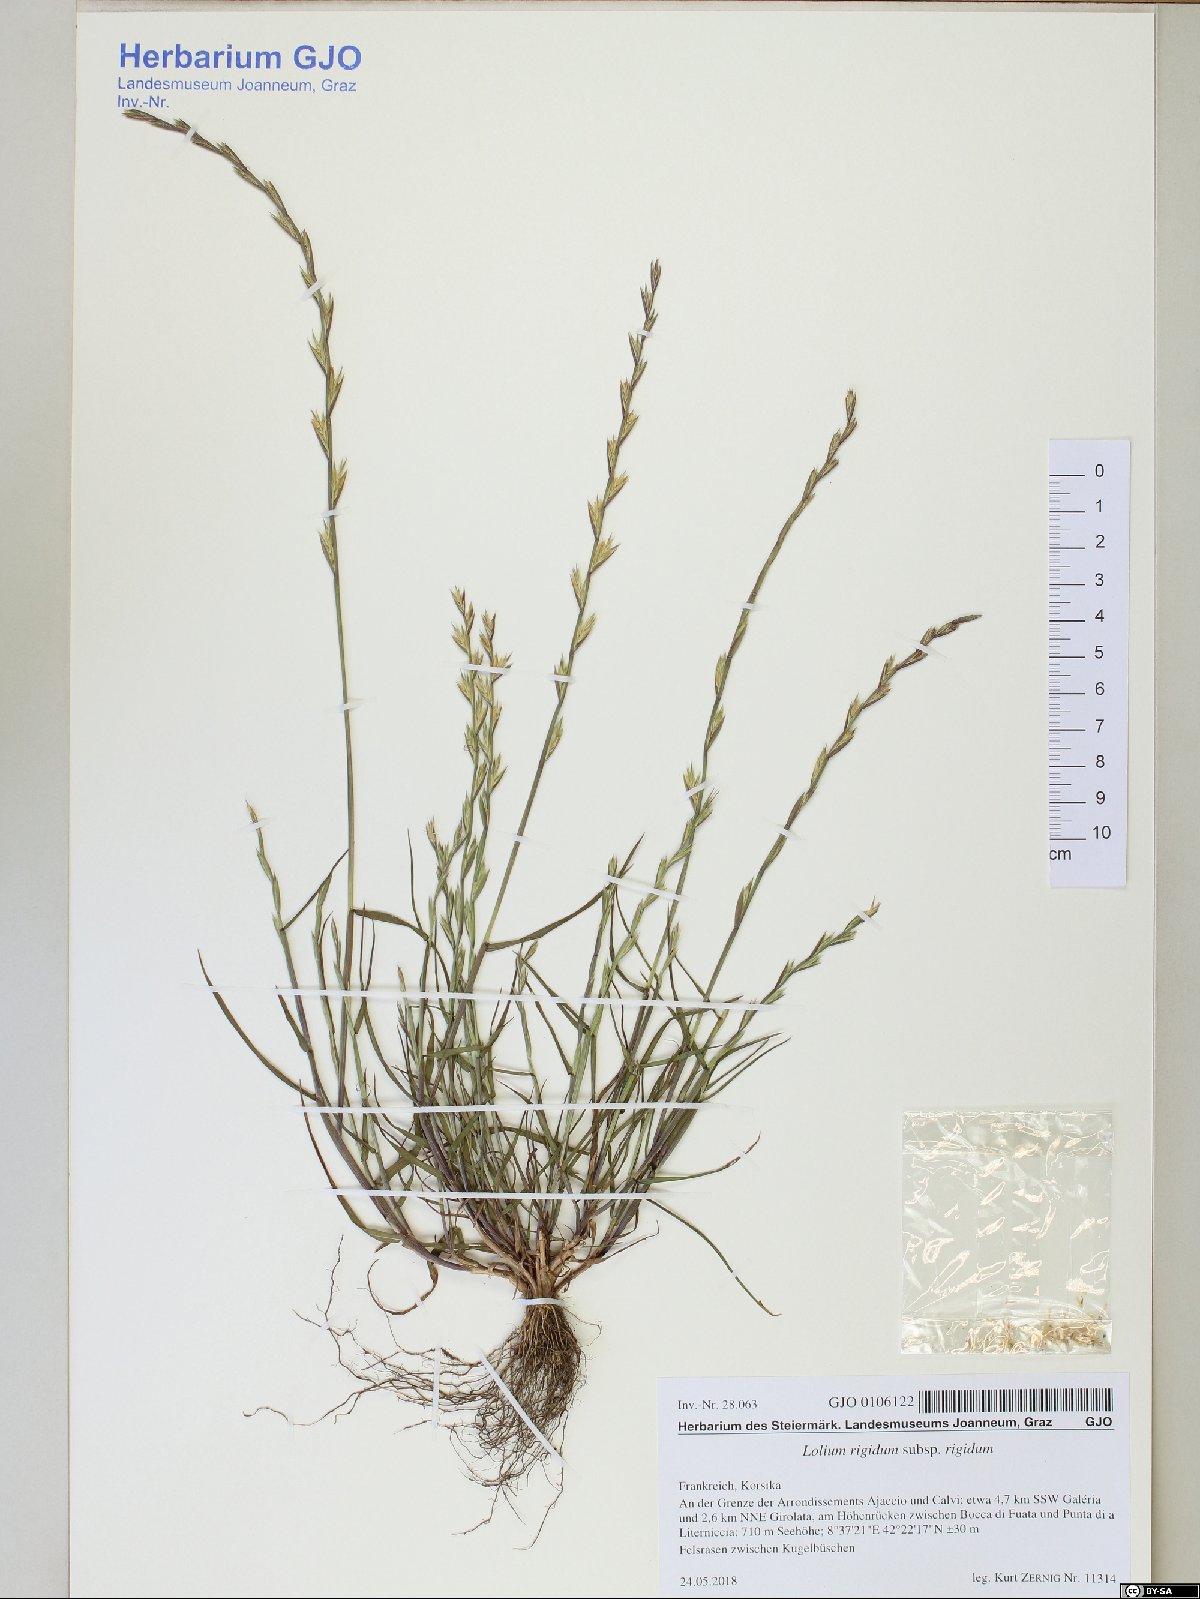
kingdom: Plantae
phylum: Tracheophyta
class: Liliopsida
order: Poales
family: Poaceae
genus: Lolium
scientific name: Lolium rigidum
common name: Wimmera ryegrass
